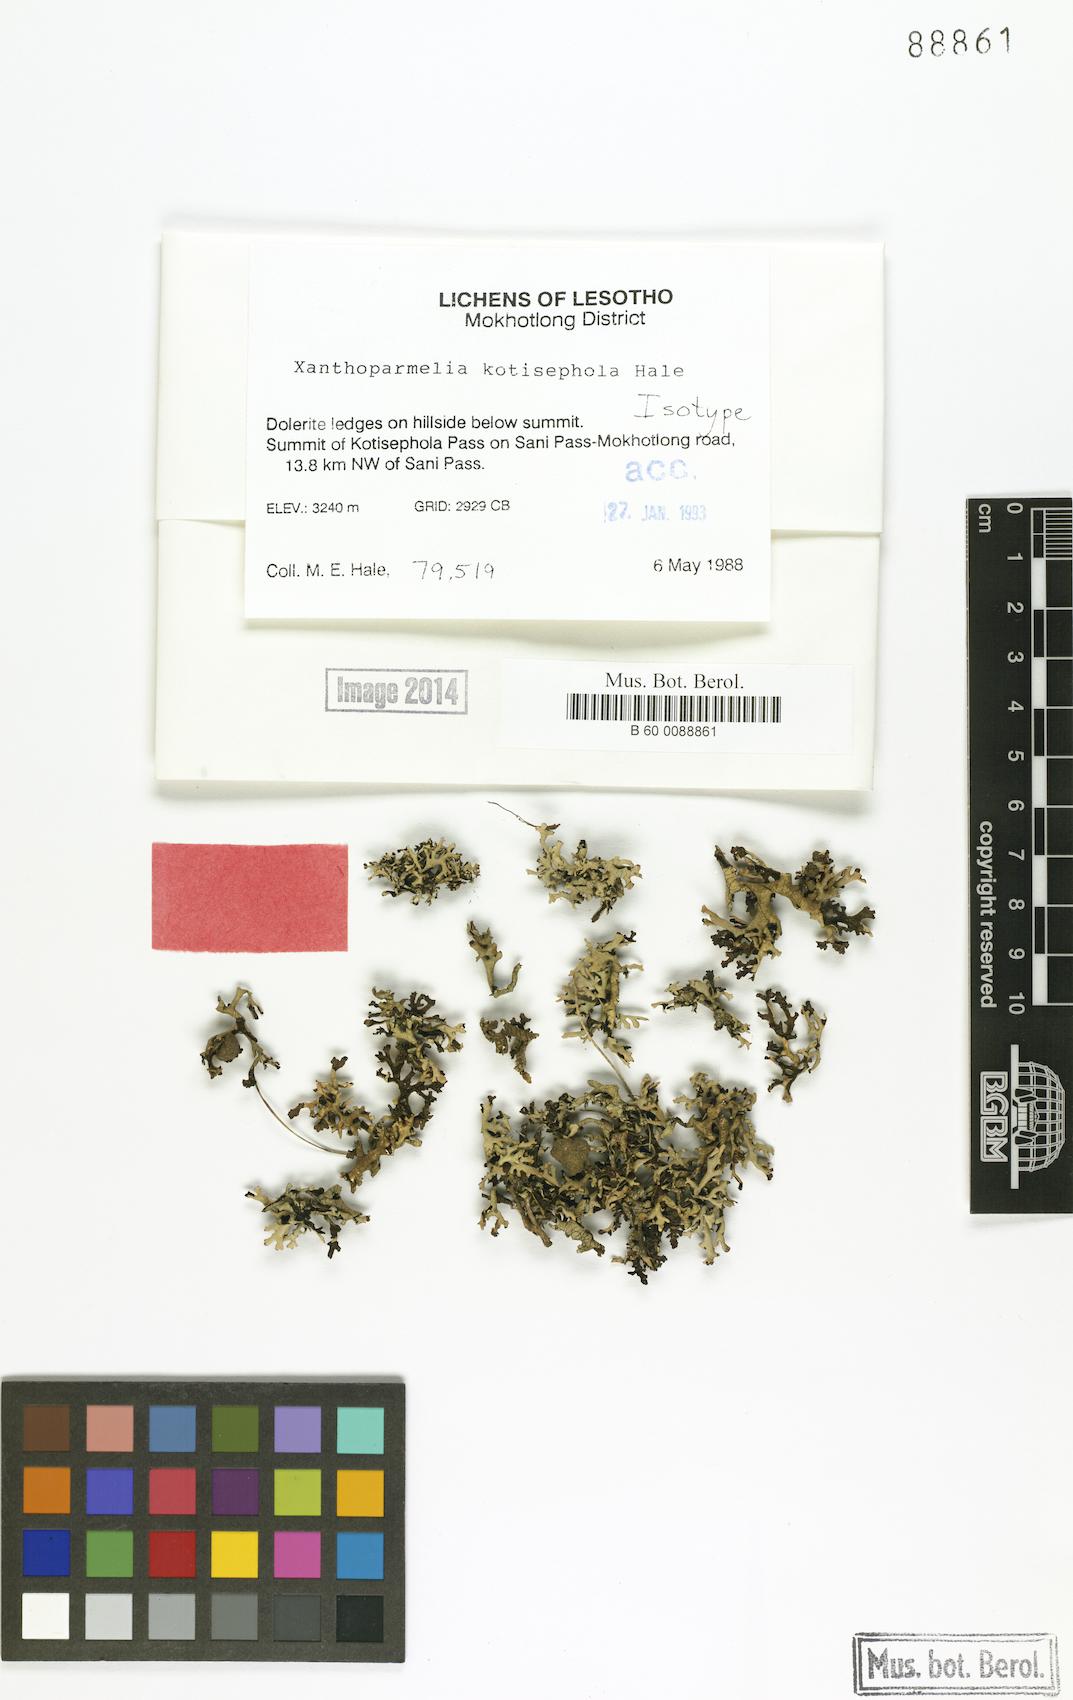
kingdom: Fungi
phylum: Ascomycota
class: Lecanoromycetes
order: Lecanorales
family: Parmeliaceae
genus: Xanthoparmelia
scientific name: Xanthoparmelia kotisephola
